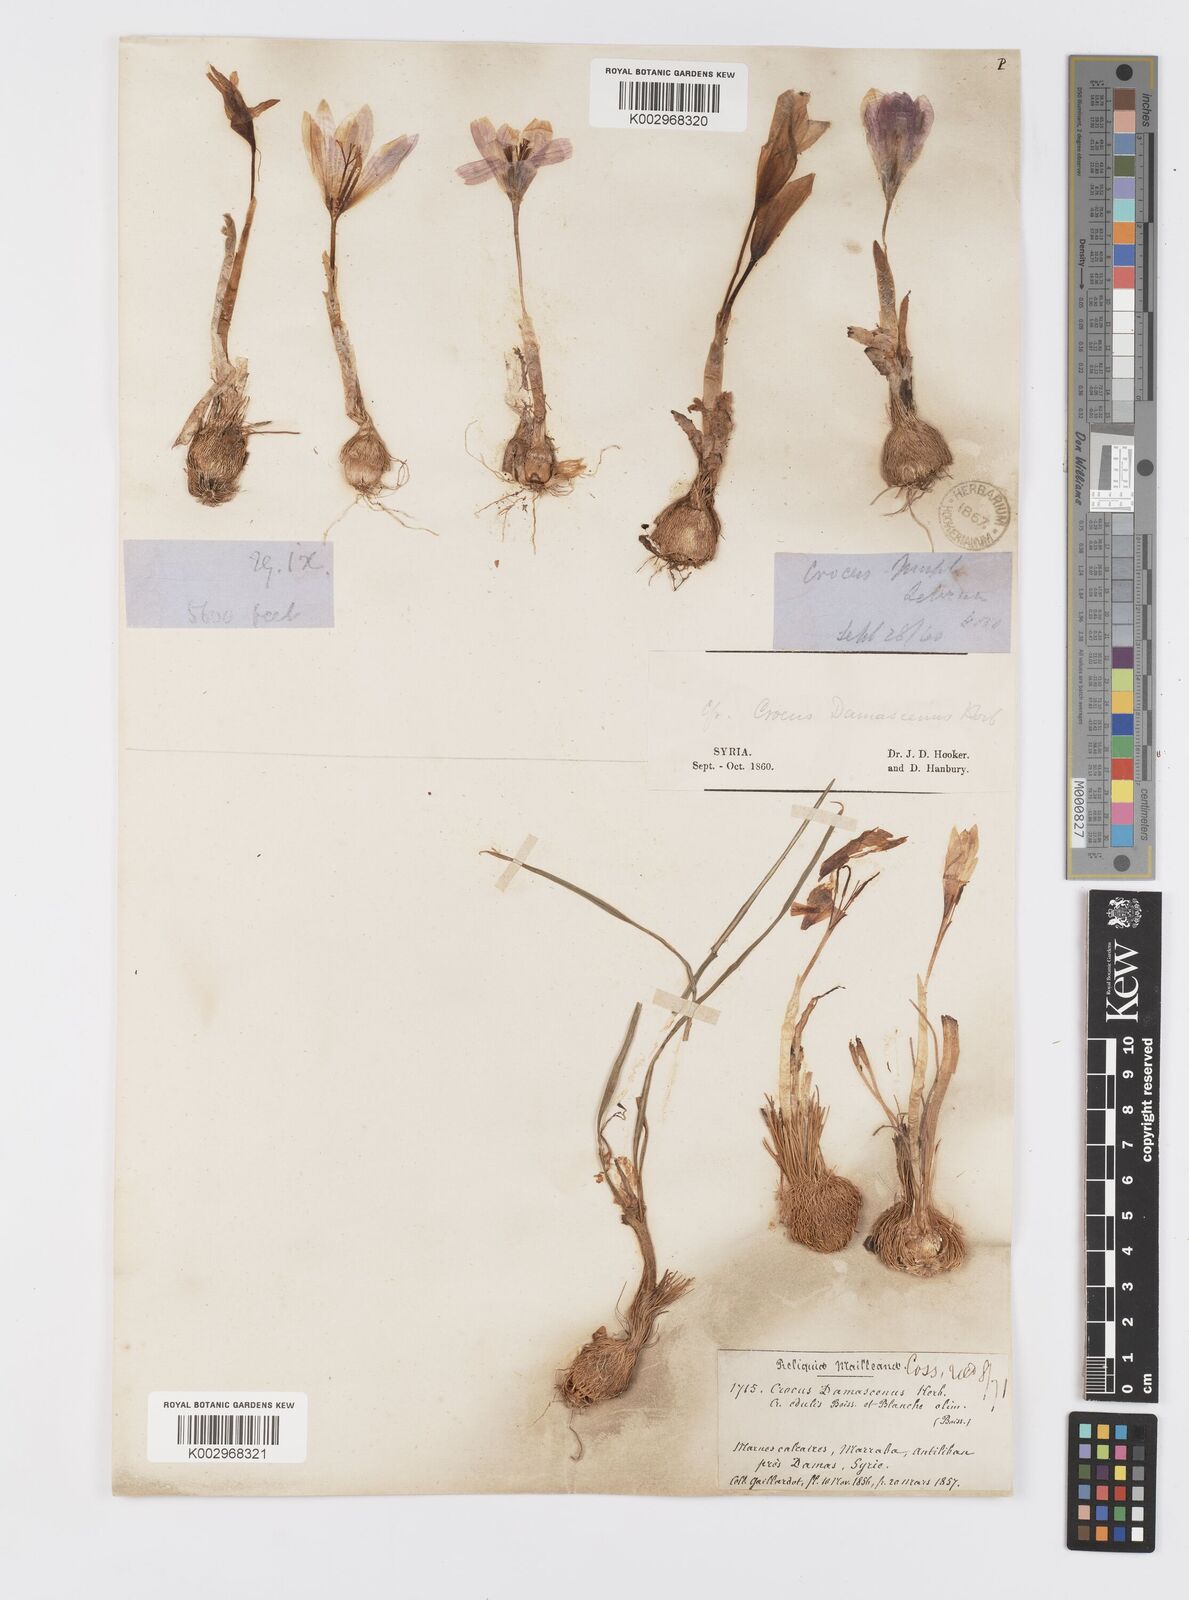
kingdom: Plantae
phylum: Tracheophyta
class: Liliopsida
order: Asparagales
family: Iridaceae
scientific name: Iridaceae
